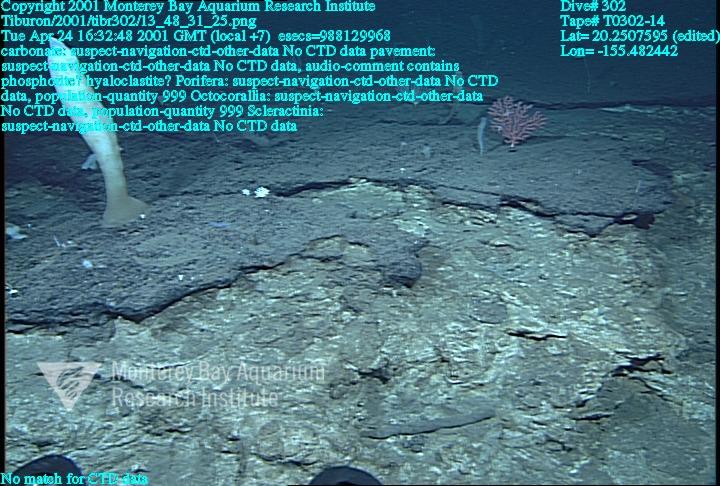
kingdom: Animalia
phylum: Porifera
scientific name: Porifera
